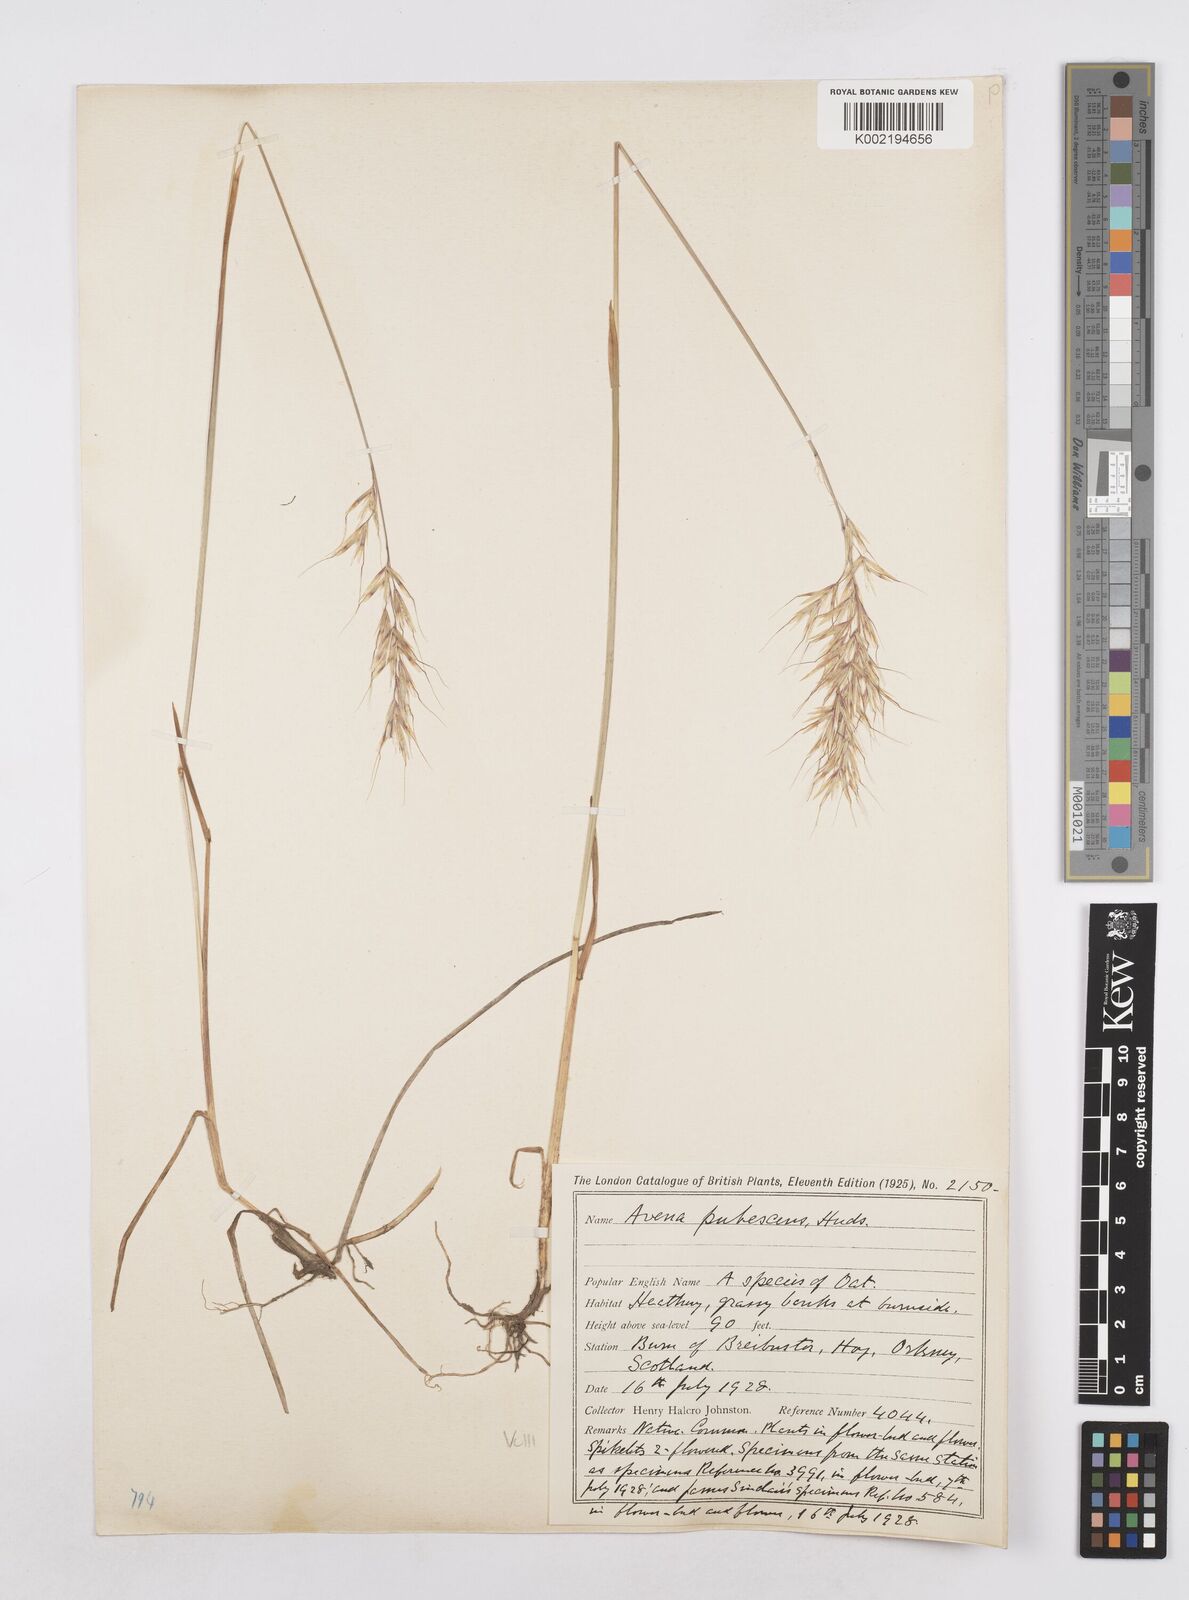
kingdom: Plantae
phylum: Tracheophyta
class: Liliopsida
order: Poales
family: Poaceae
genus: Avenula
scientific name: Avenula pubescens
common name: Downy alpine oatgrass
